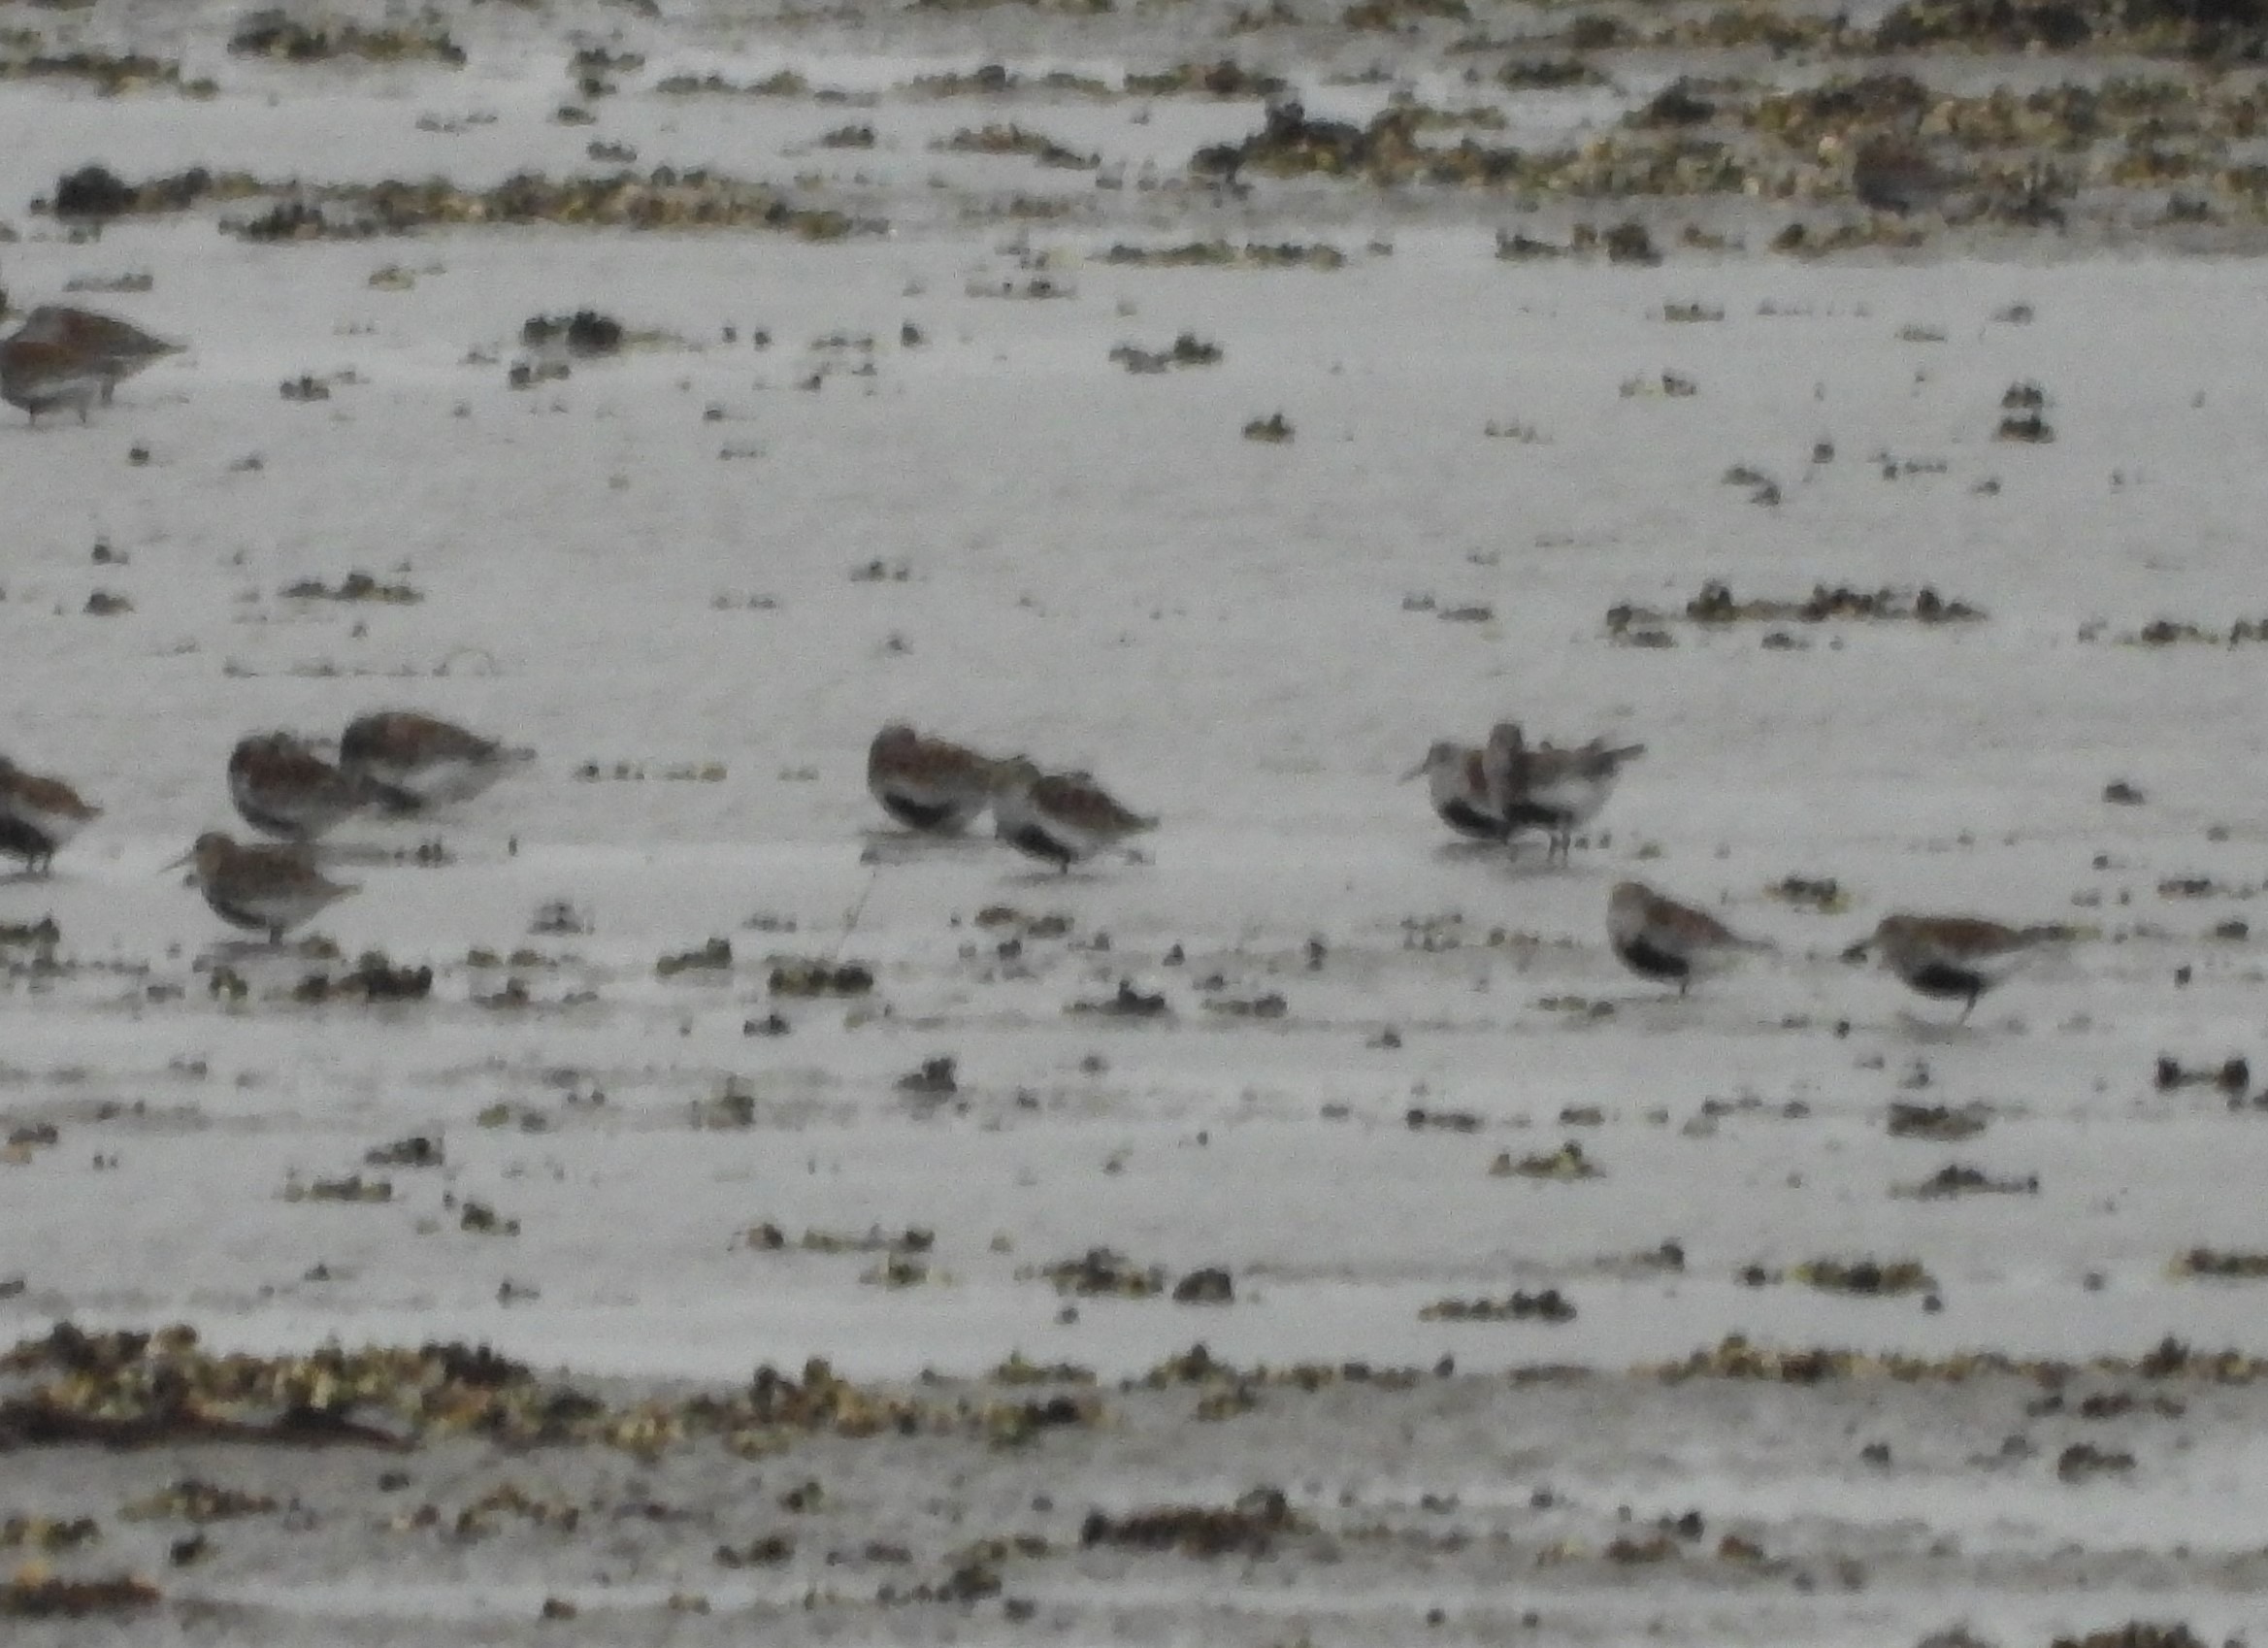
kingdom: Animalia
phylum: Chordata
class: Aves
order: Charadriiformes
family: Scolopacidae
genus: Calidris
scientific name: Calidris alpina
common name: Almindelig ryle
